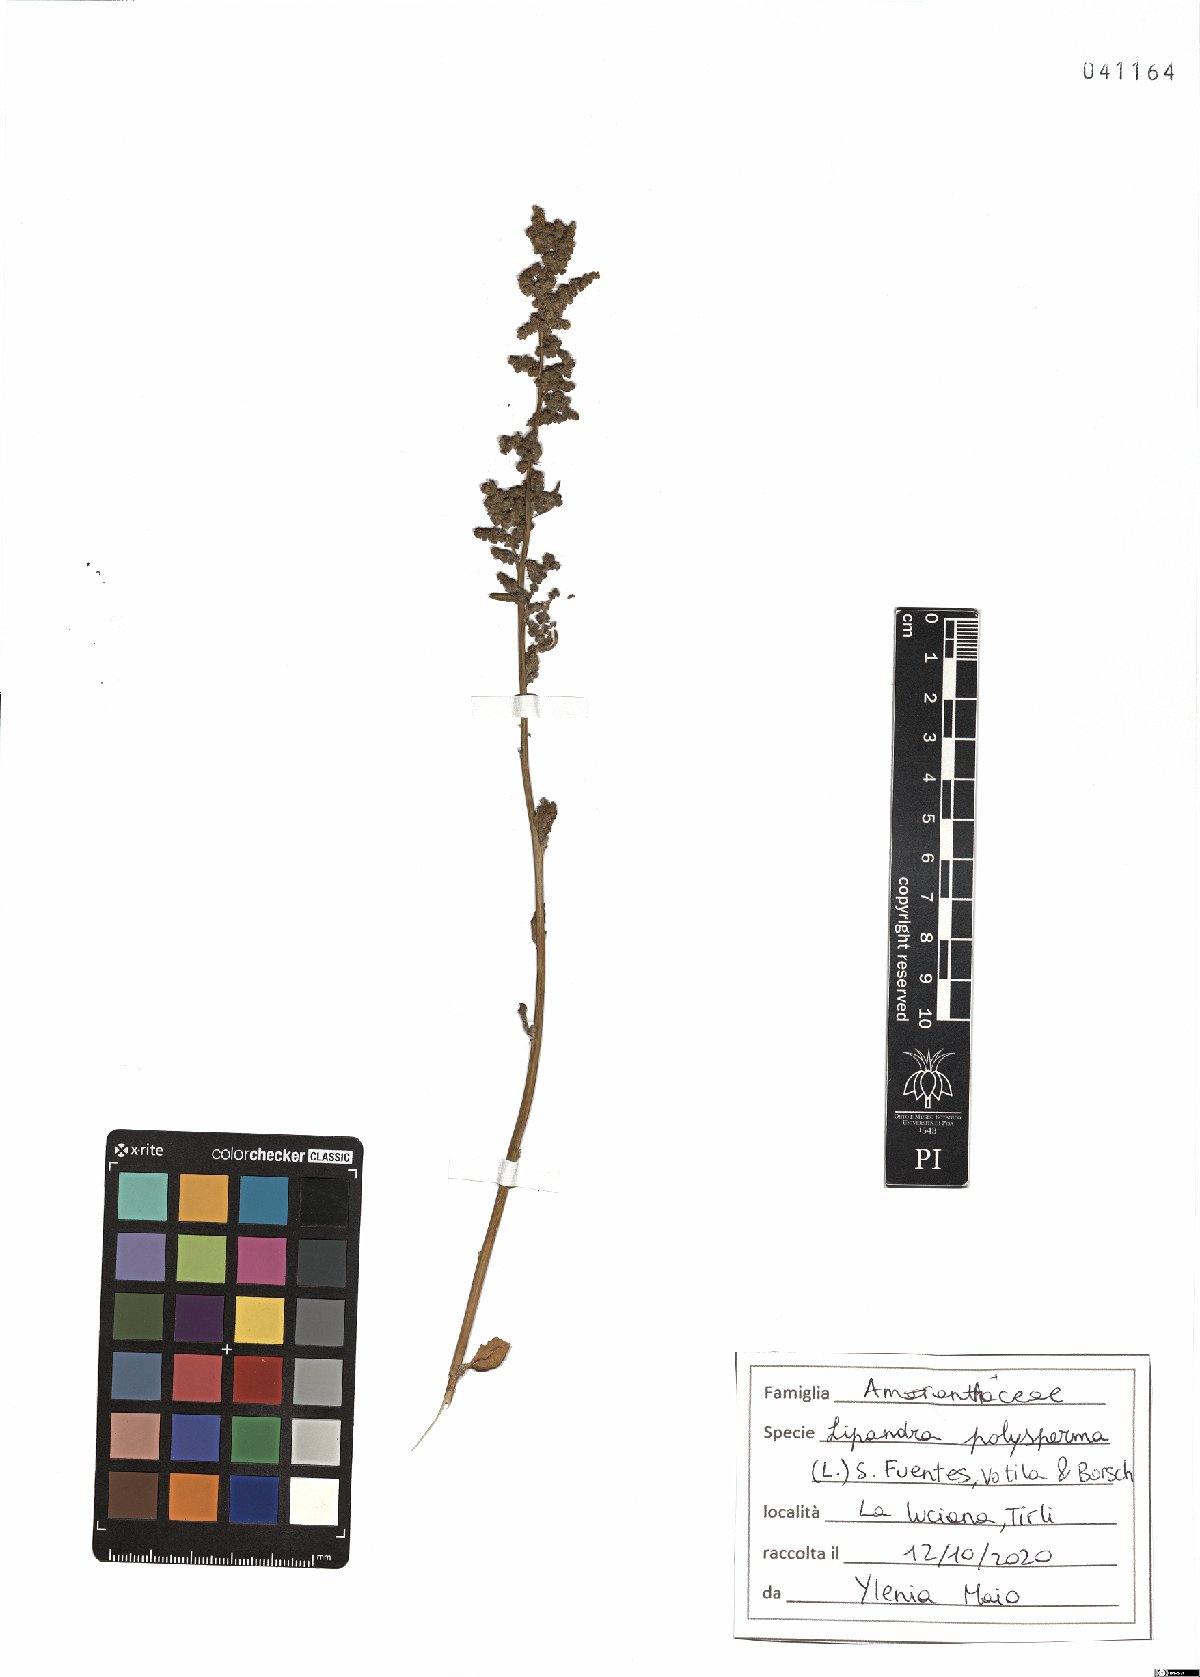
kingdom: Plantae
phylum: Tracheophyta
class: Magnoliopsida
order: Caryophyllales
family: Amaranthaceae
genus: Lipandra
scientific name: Lipandra polysperma
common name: Many-seed goosefoot
